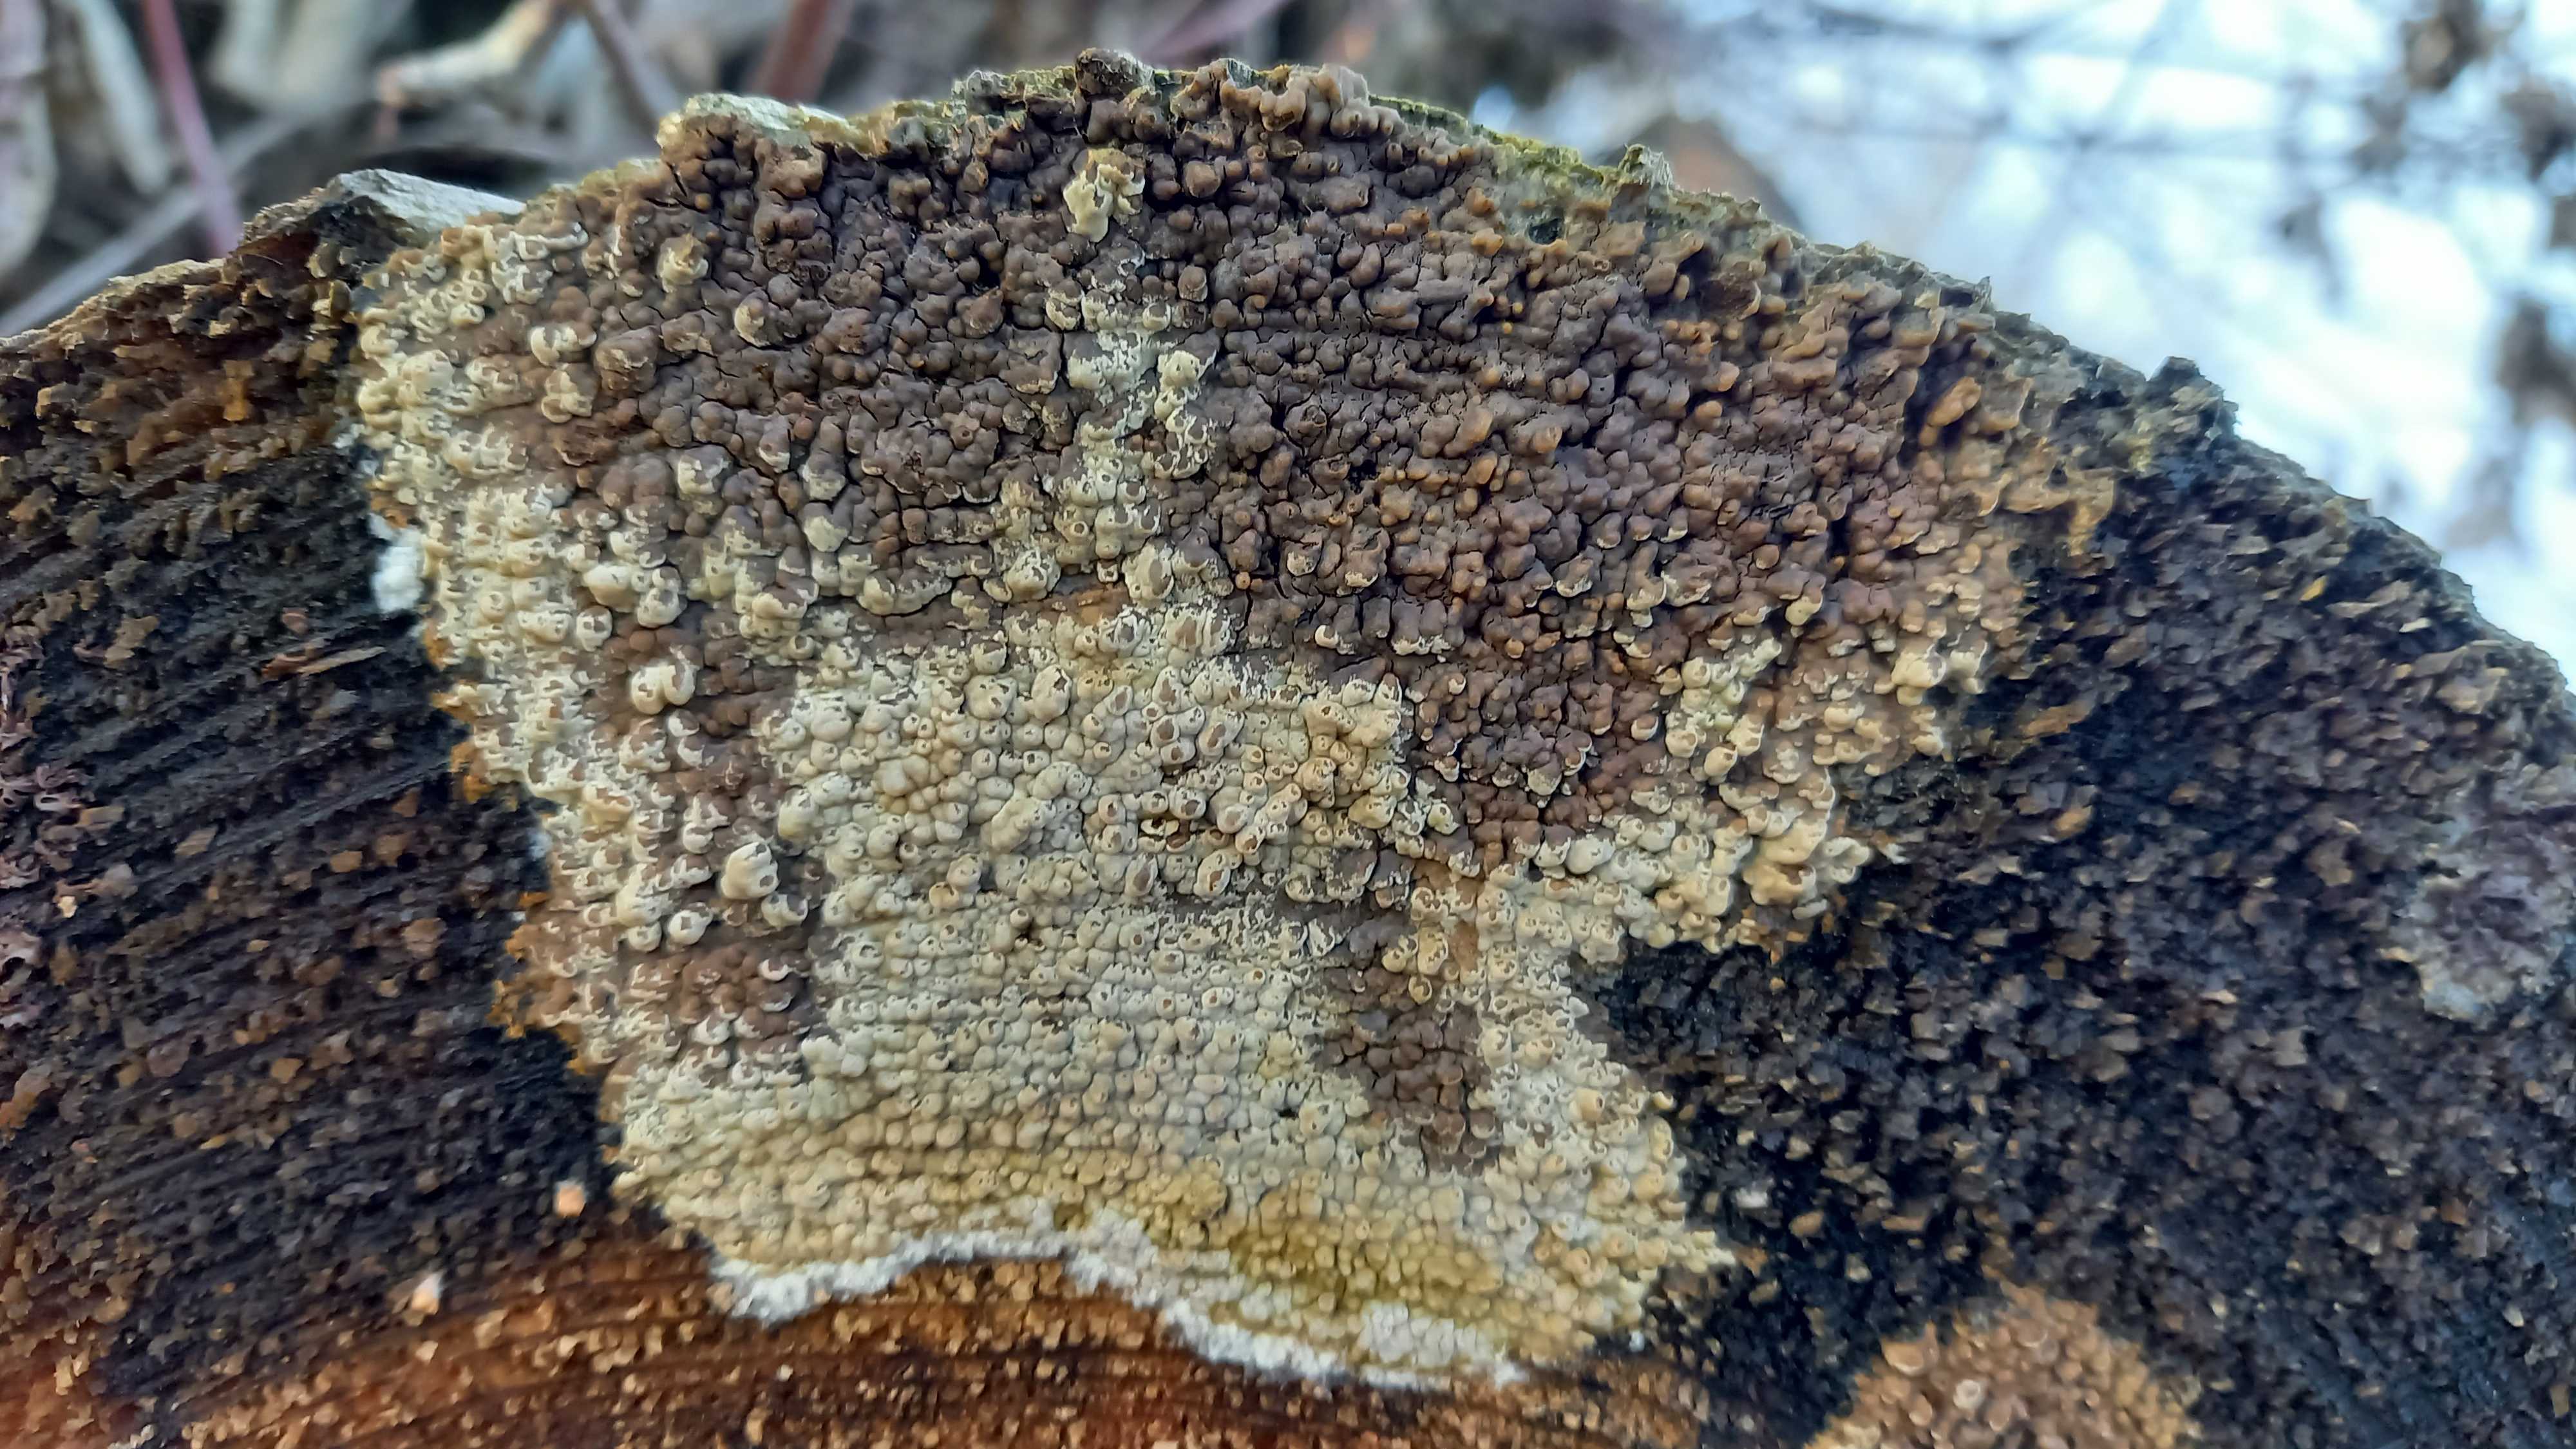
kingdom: Fungi
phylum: Basidiomycota
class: Agaricomycetes
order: Boletales
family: Coniophoraceae
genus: Coniophora
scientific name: Coniophora puteana
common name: gul tømmersvamp
